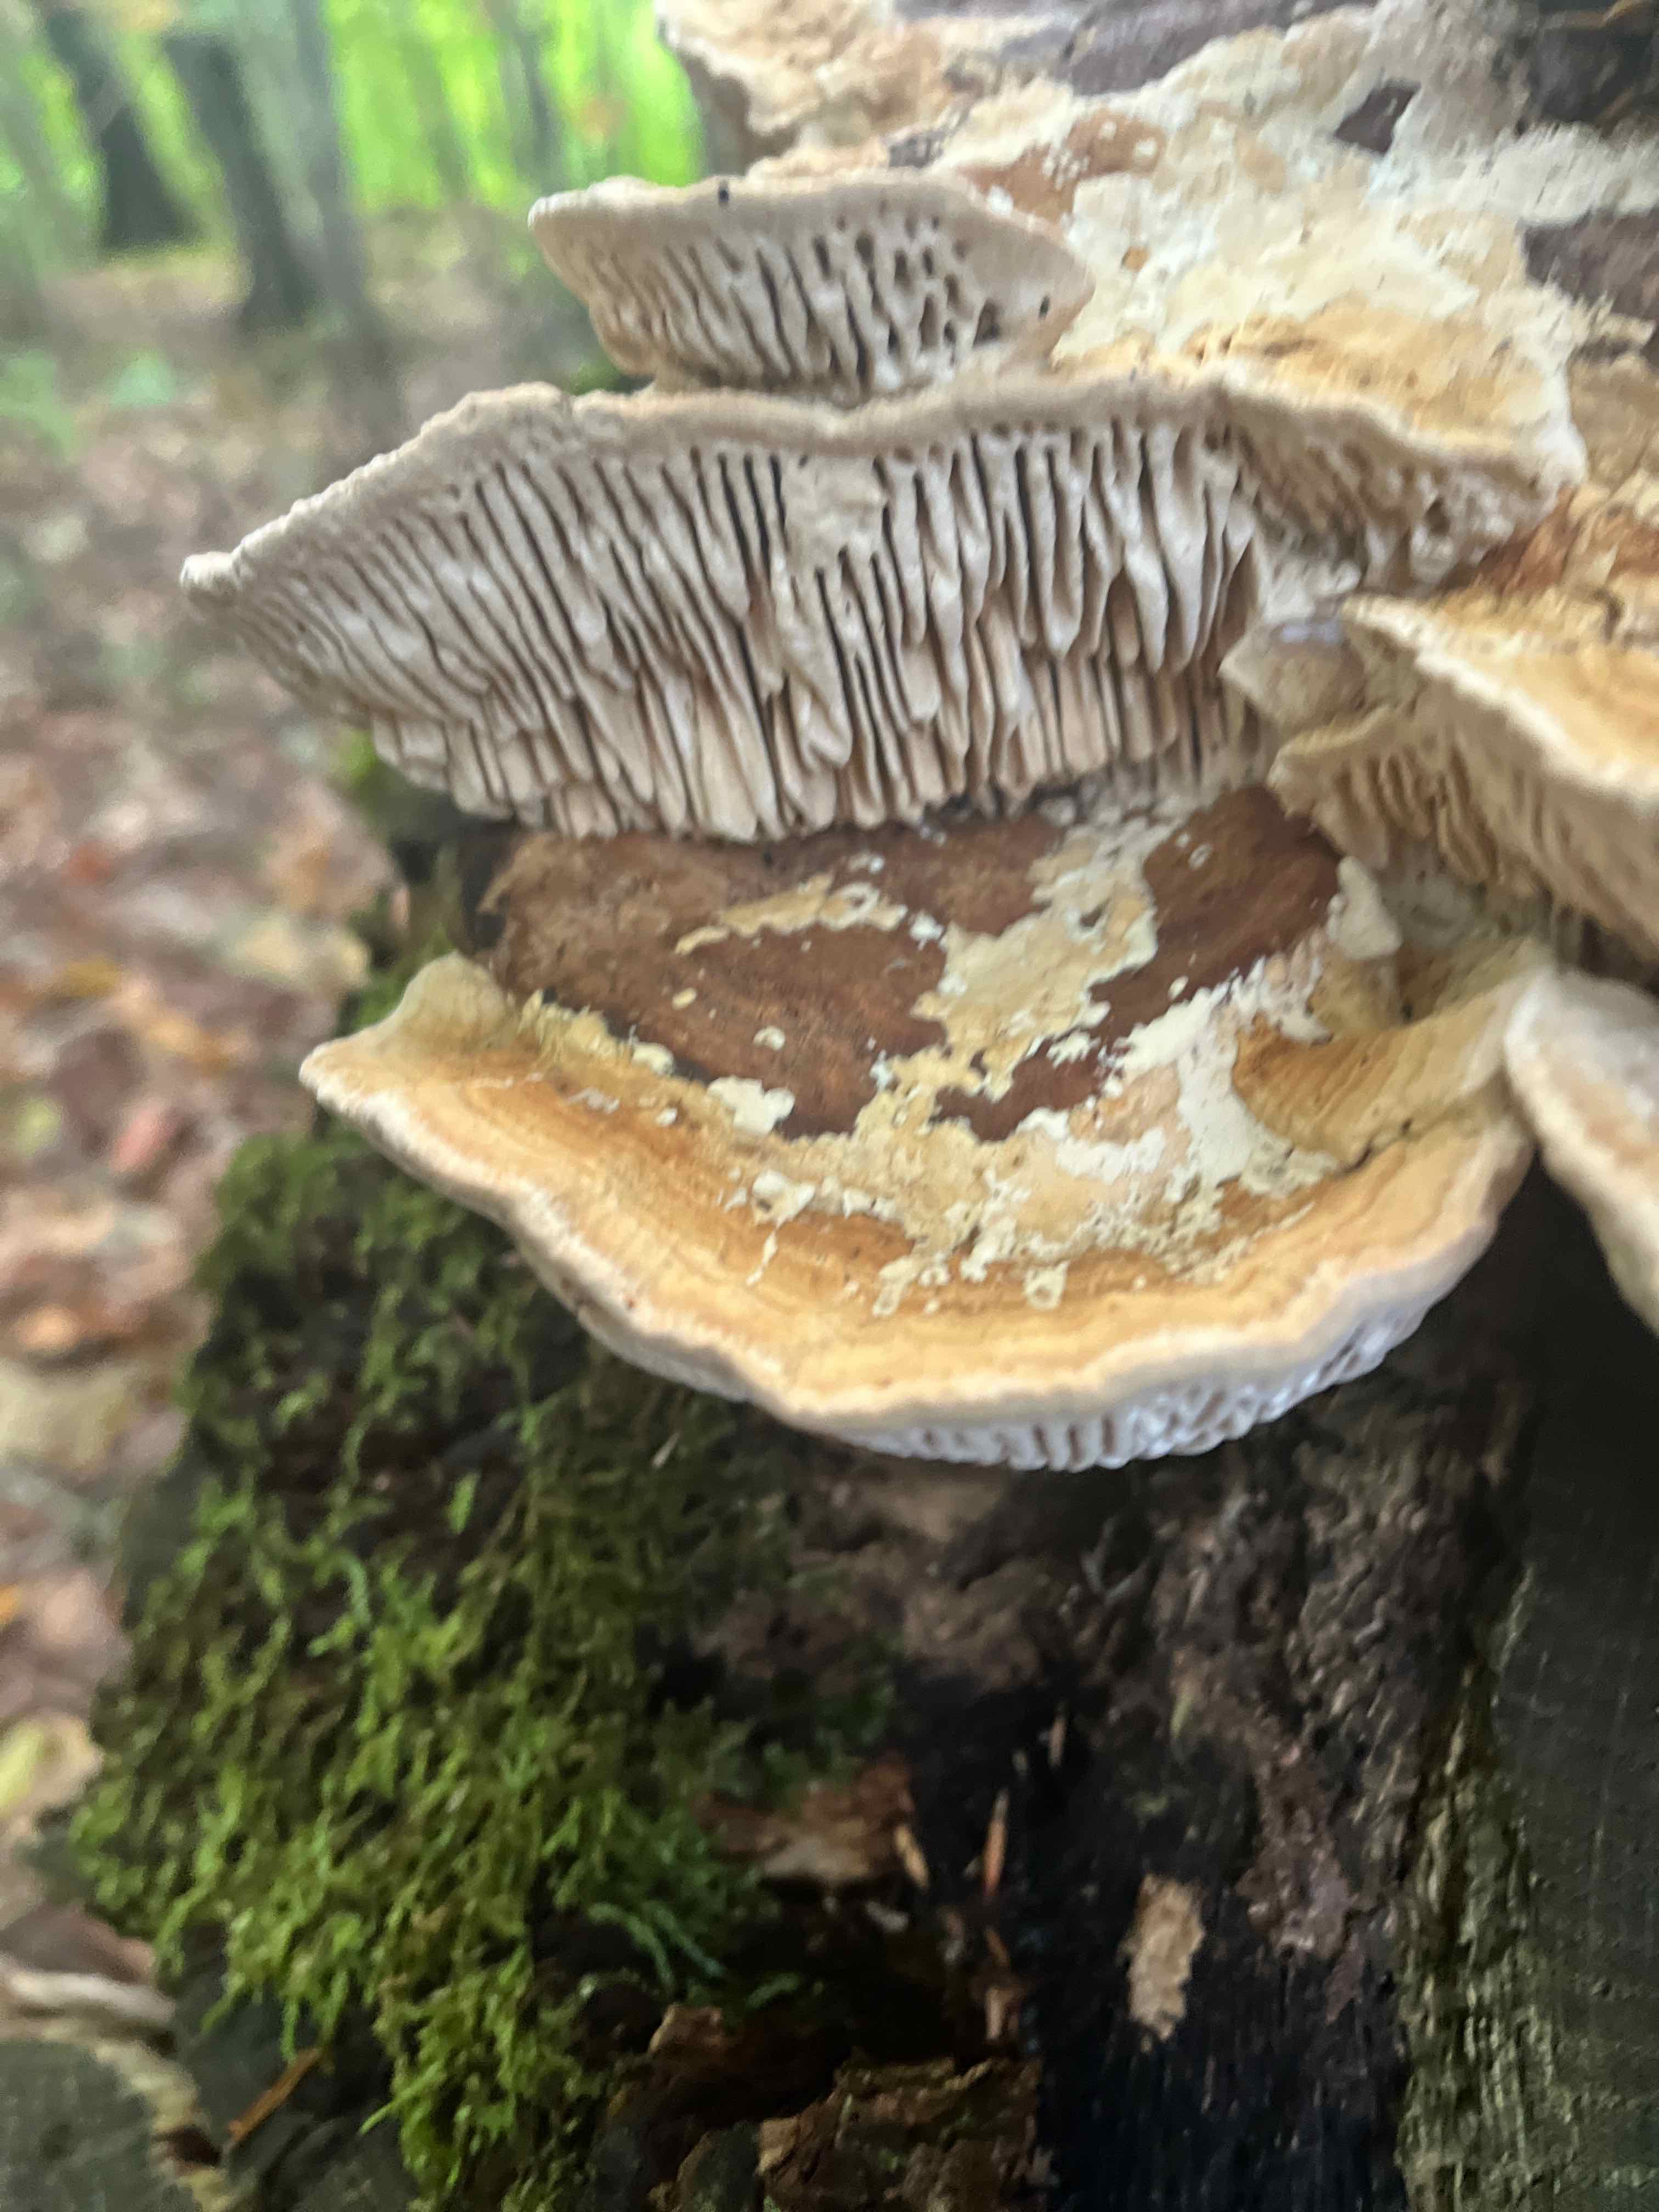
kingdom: Fungi
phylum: Basidiomycota
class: Agaricomycetes
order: Polyporales
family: Fomitopsidaceae
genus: Daedalea
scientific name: Daedalea quercina
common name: ege-labyrintsvamp
